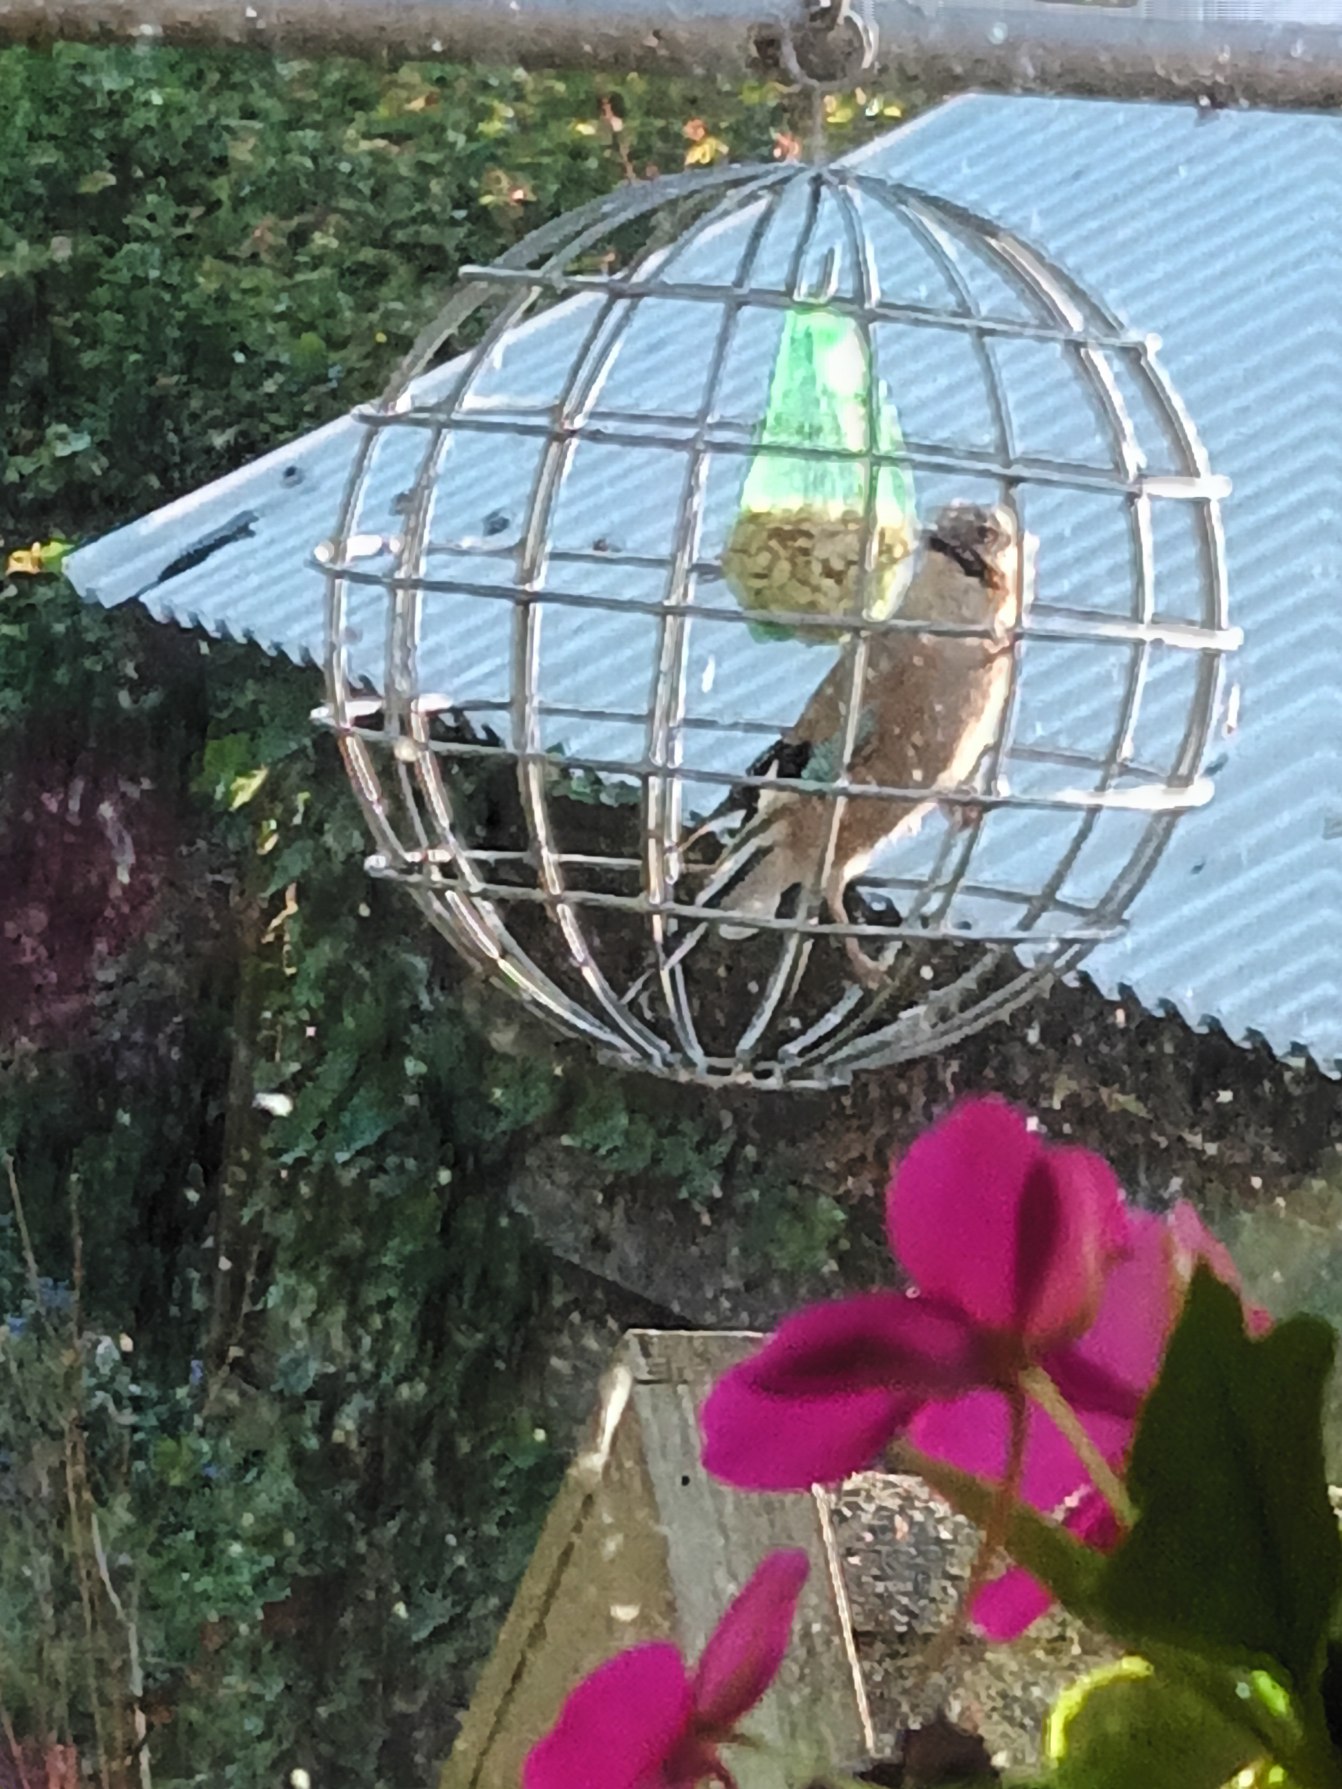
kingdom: Animalia
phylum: Chordata
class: Aves
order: Passeriformes
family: Corvidae
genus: Garrulus
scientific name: Garrulus glandarius
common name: Skovskade
